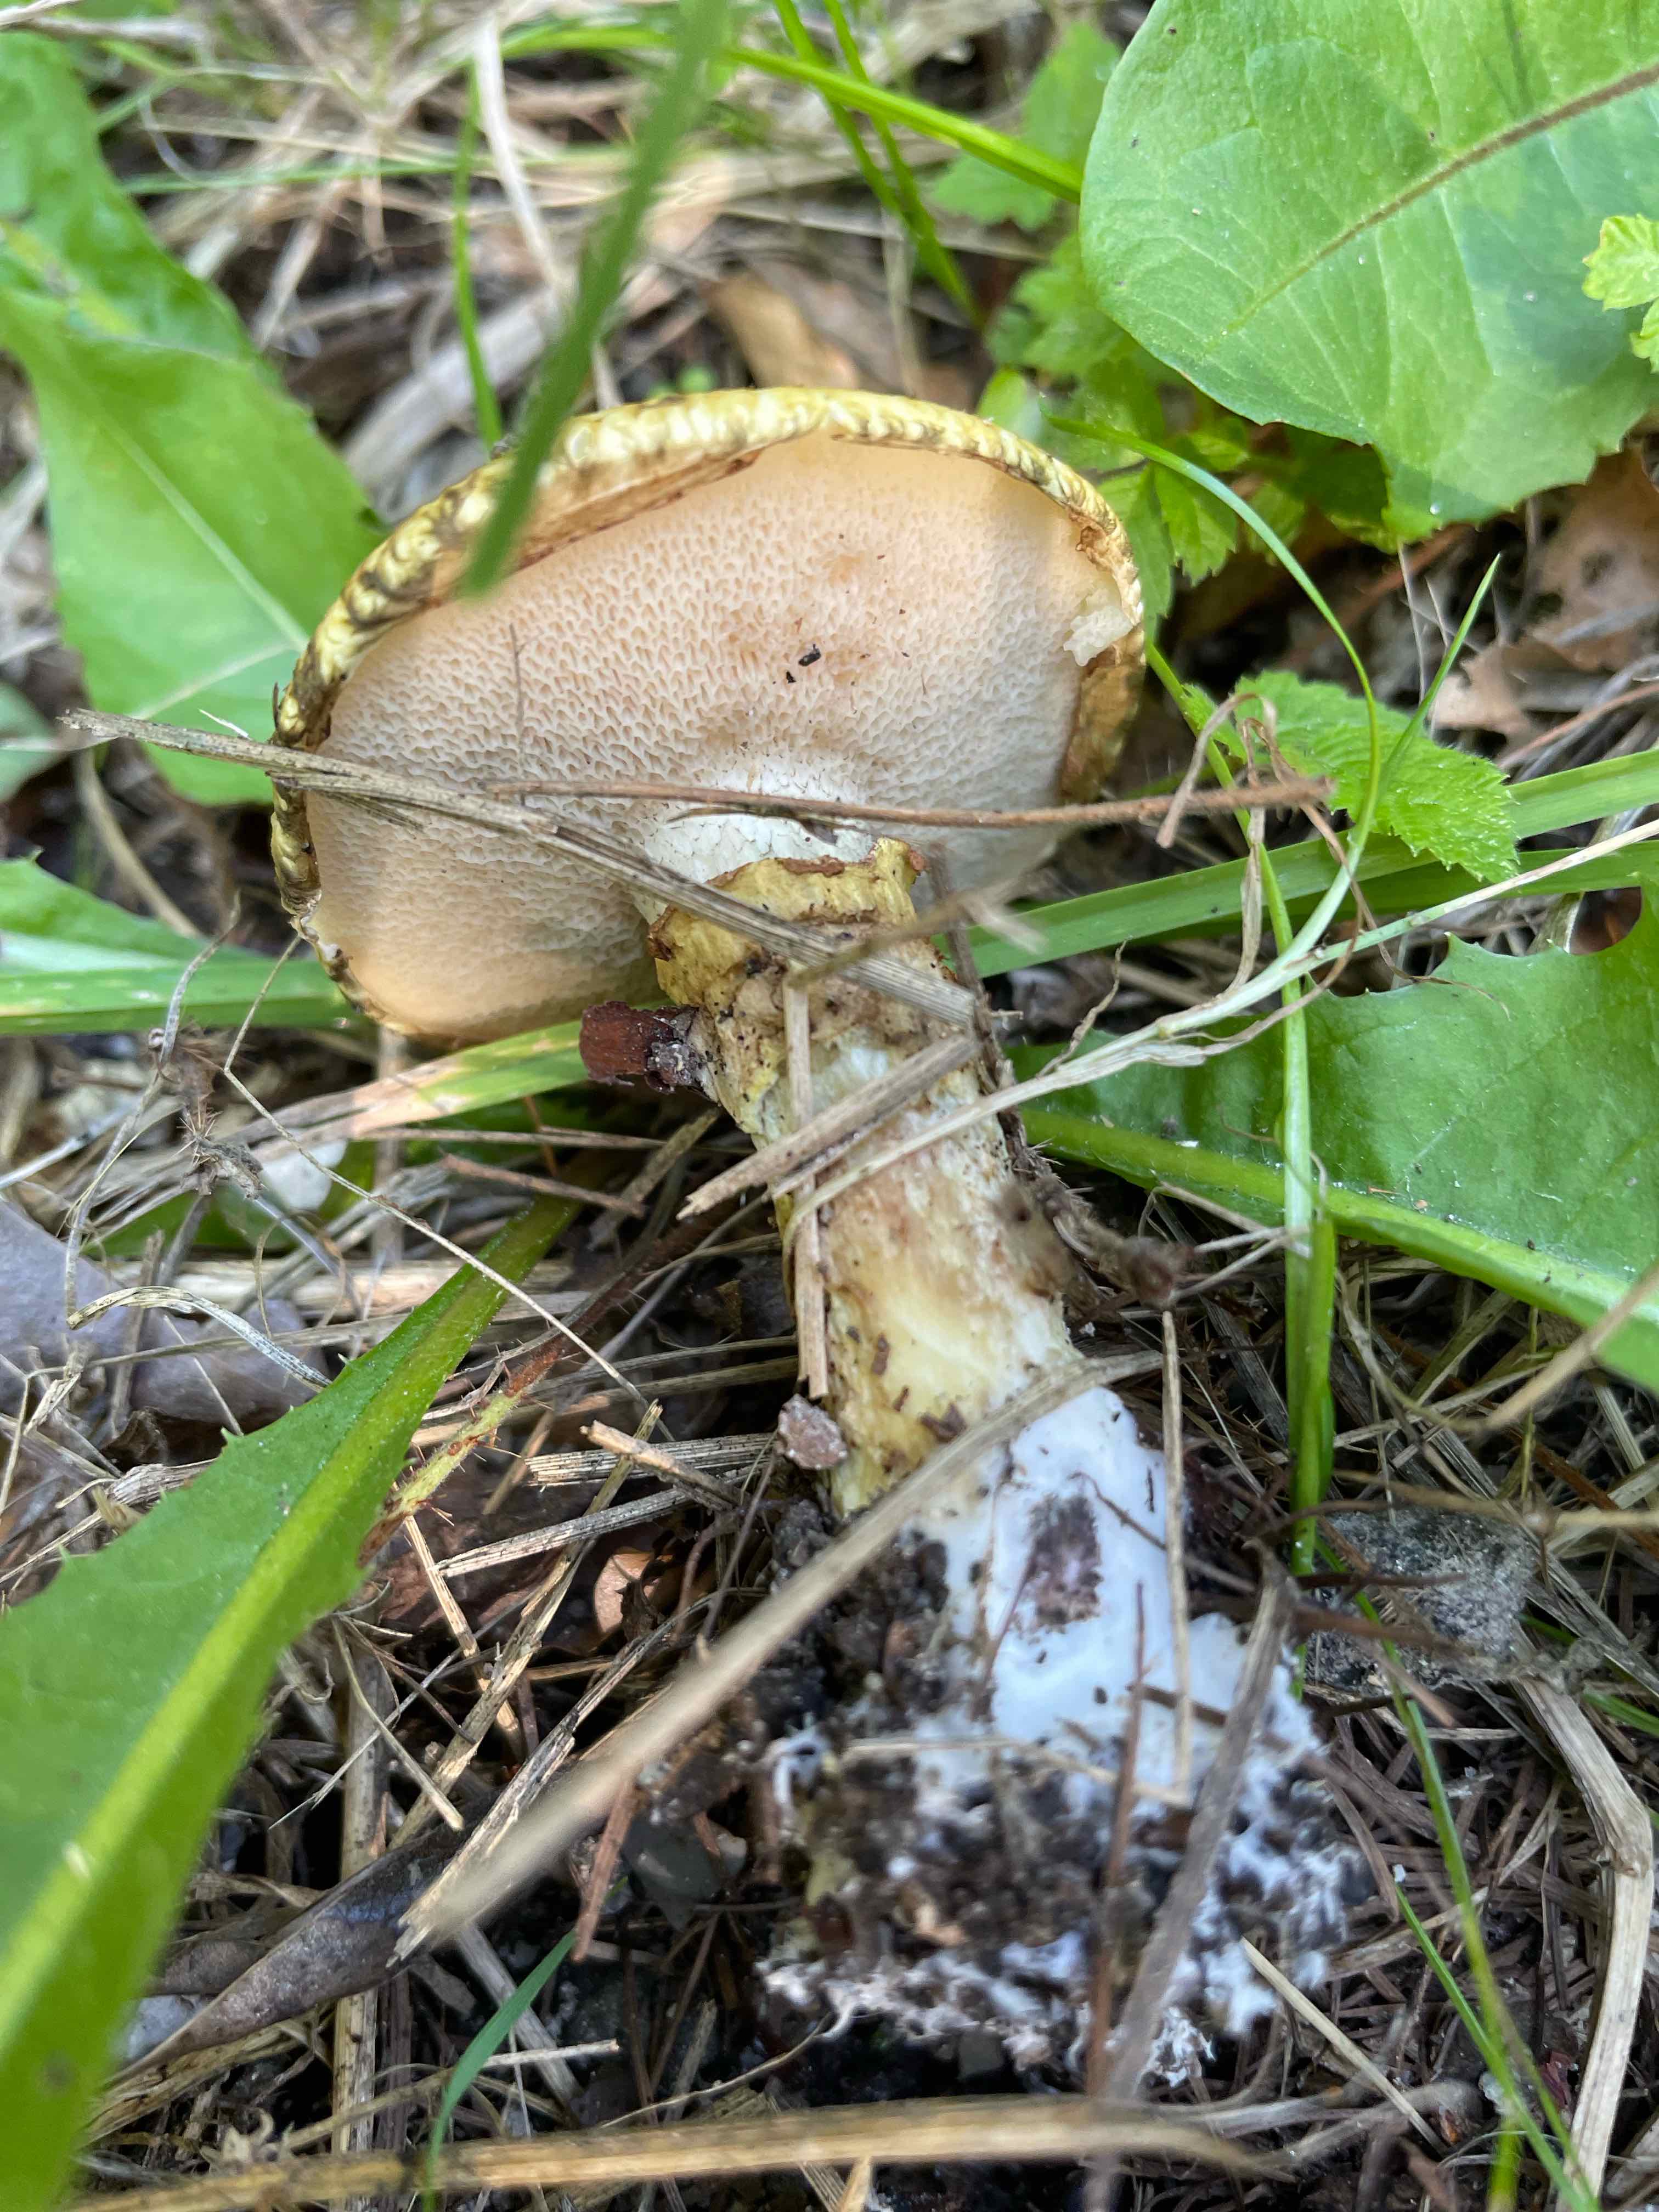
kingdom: Fungi
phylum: Basidiomycota
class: Agaricomycetes
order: Boletales
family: Suillaceae
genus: Suillus
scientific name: Suillus viscidus
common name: olivengrå slimrørhat
